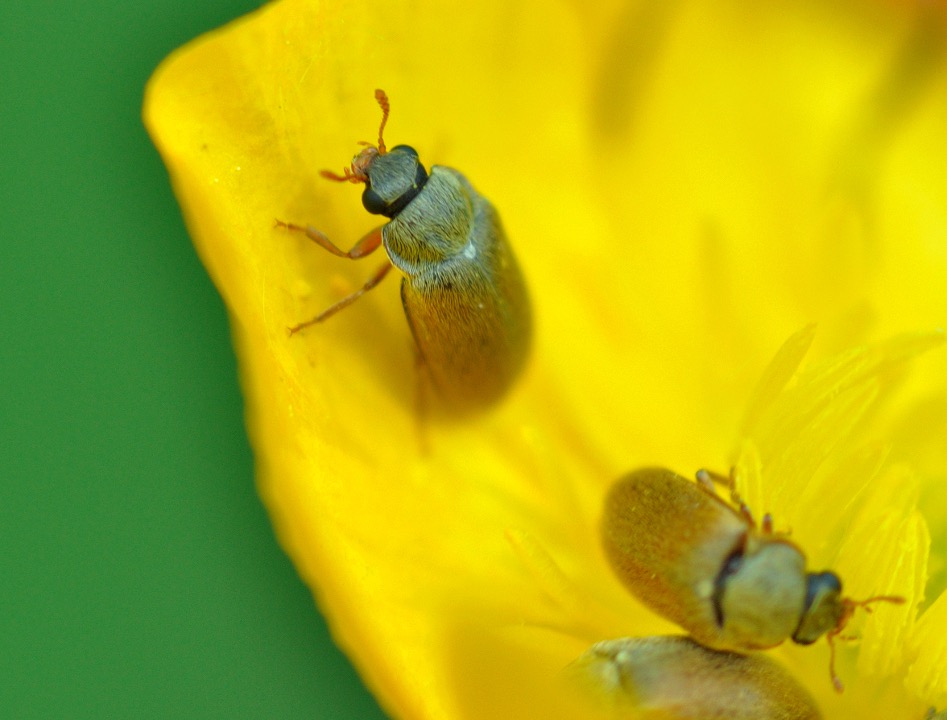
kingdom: Animalia
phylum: Arthropoda
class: Insecta
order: Coleoptera
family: Byturidae
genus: Byturus
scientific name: Byturus ochraceus
